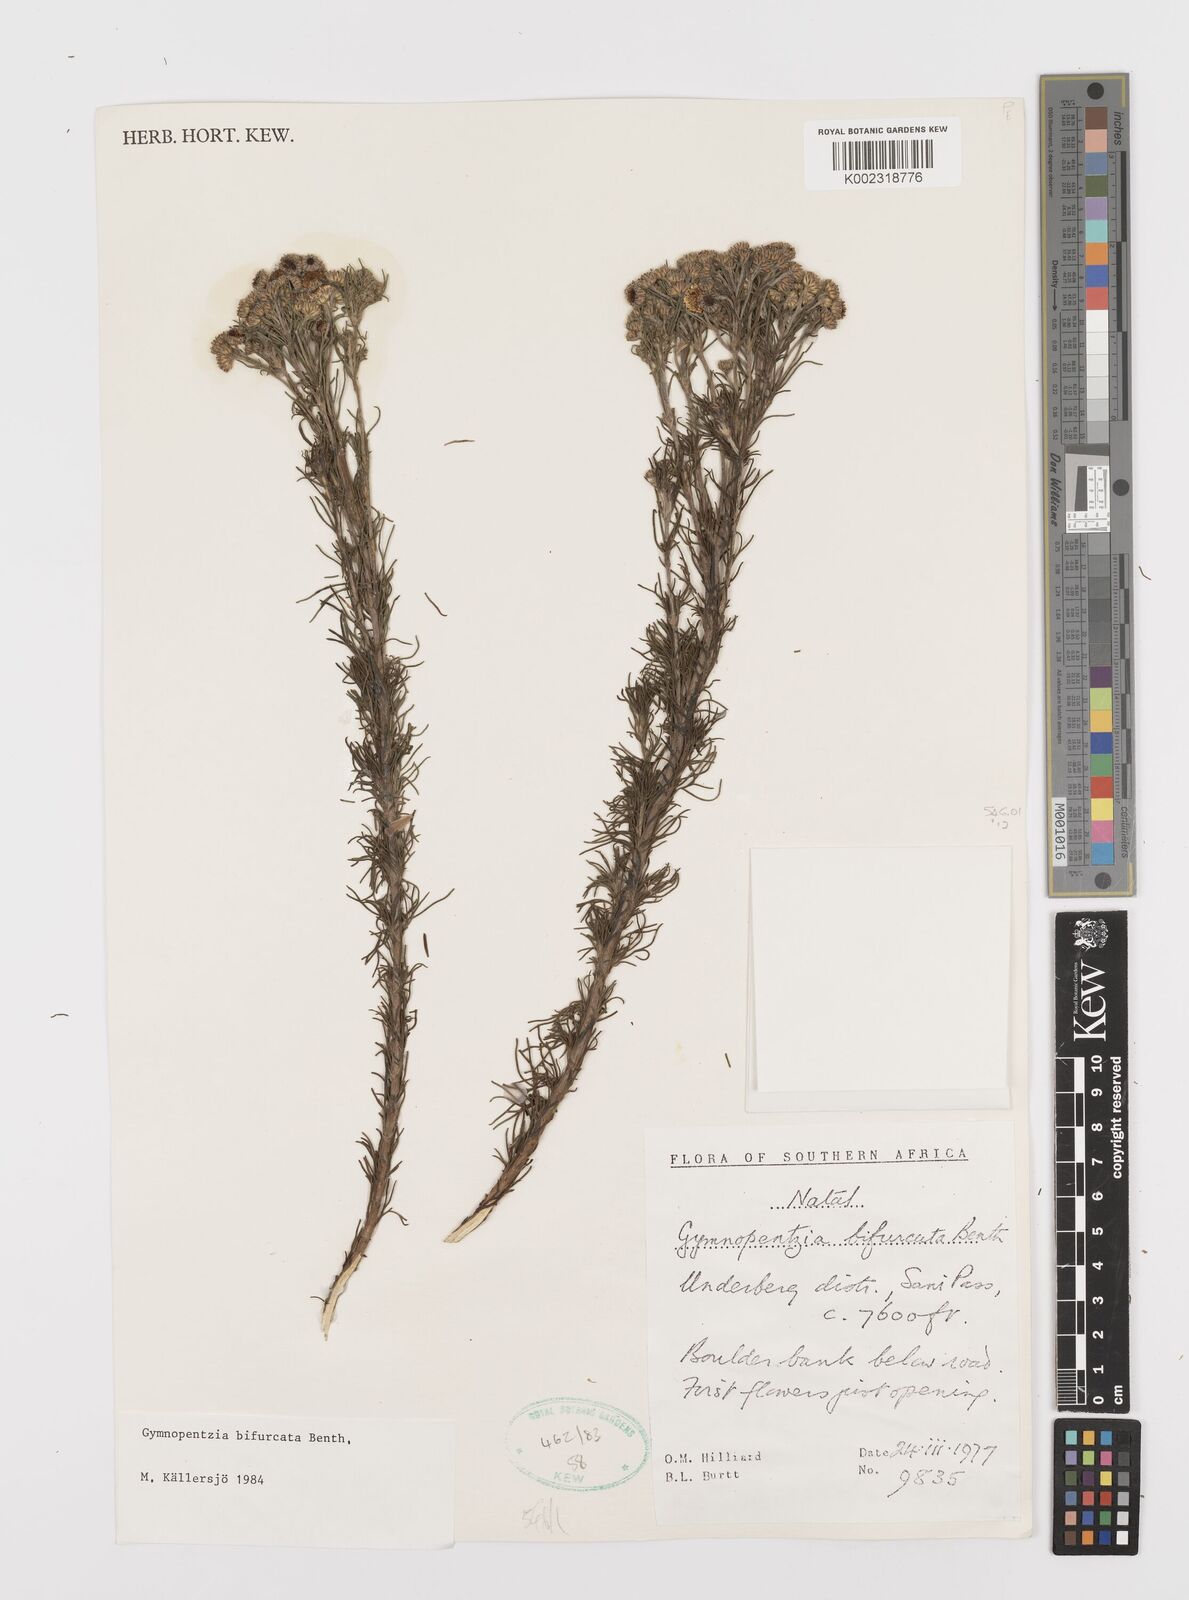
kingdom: Plantae
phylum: Tracheophyta
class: Magnoliopsida
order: Asterales
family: Asteraceae
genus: Gymnopentzia
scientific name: Gymnopentzia bifurcata
